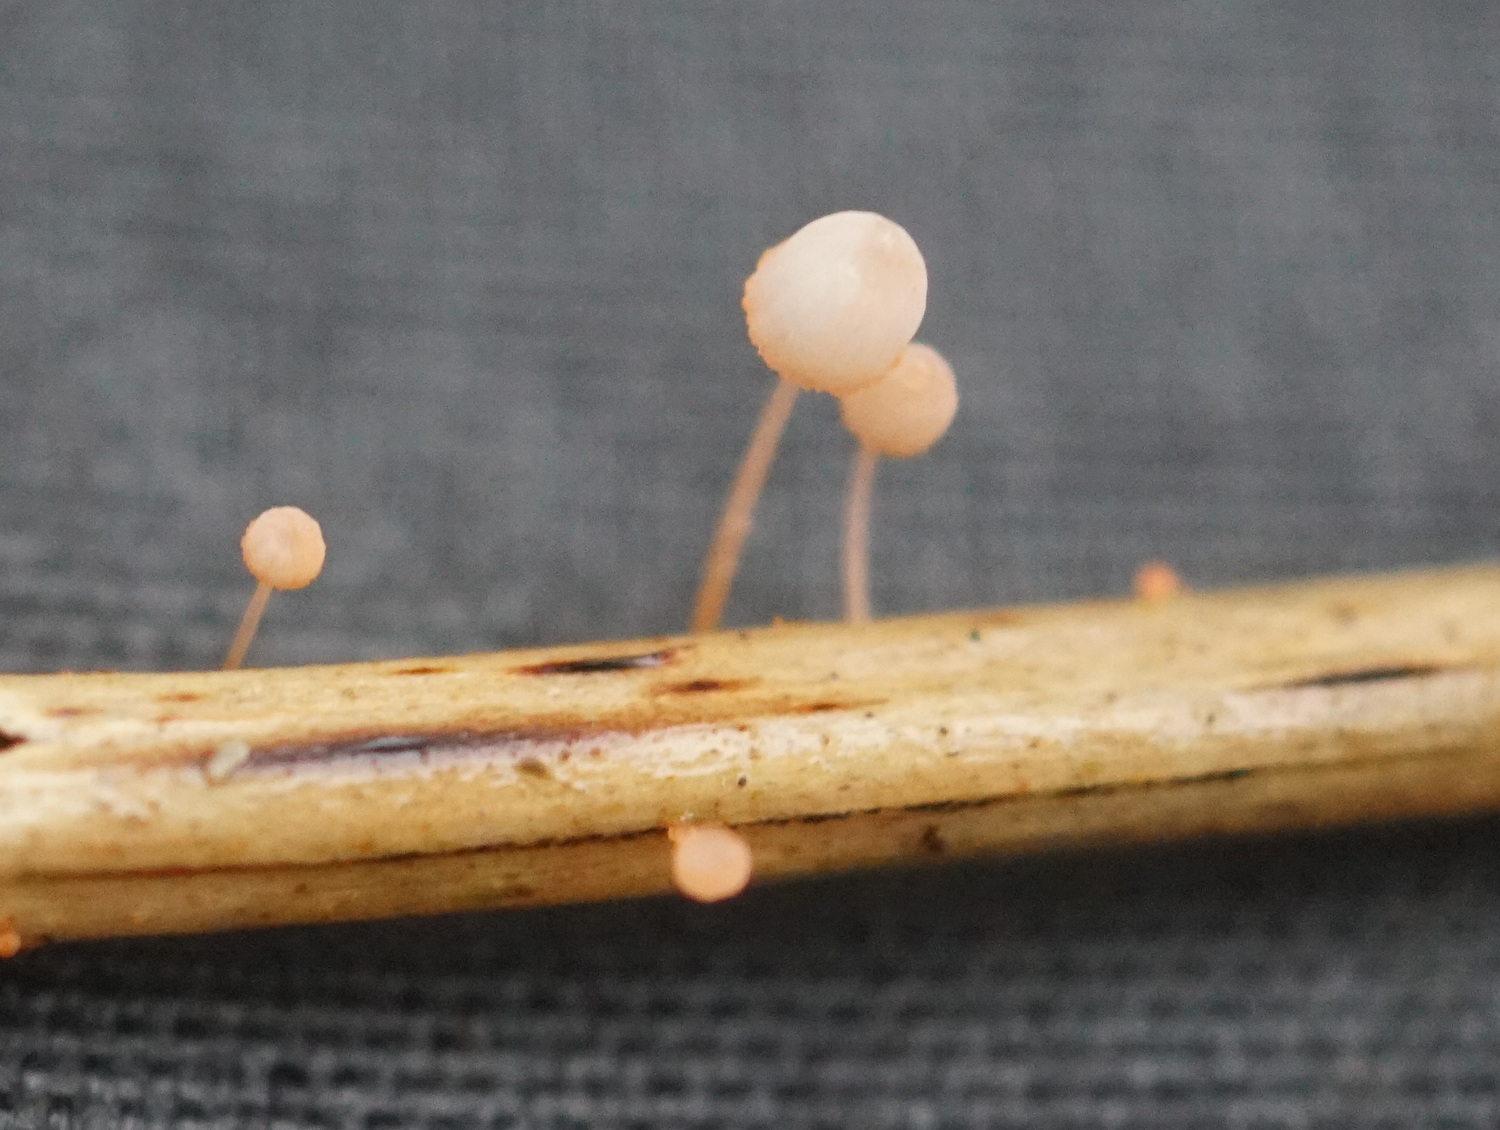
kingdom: Fungi
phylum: Basidiomycota
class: Agaricomycetes
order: Agaricales
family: Mycenaceae
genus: Mycena
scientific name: Mycena pterigena
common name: bregne-huesvamp
